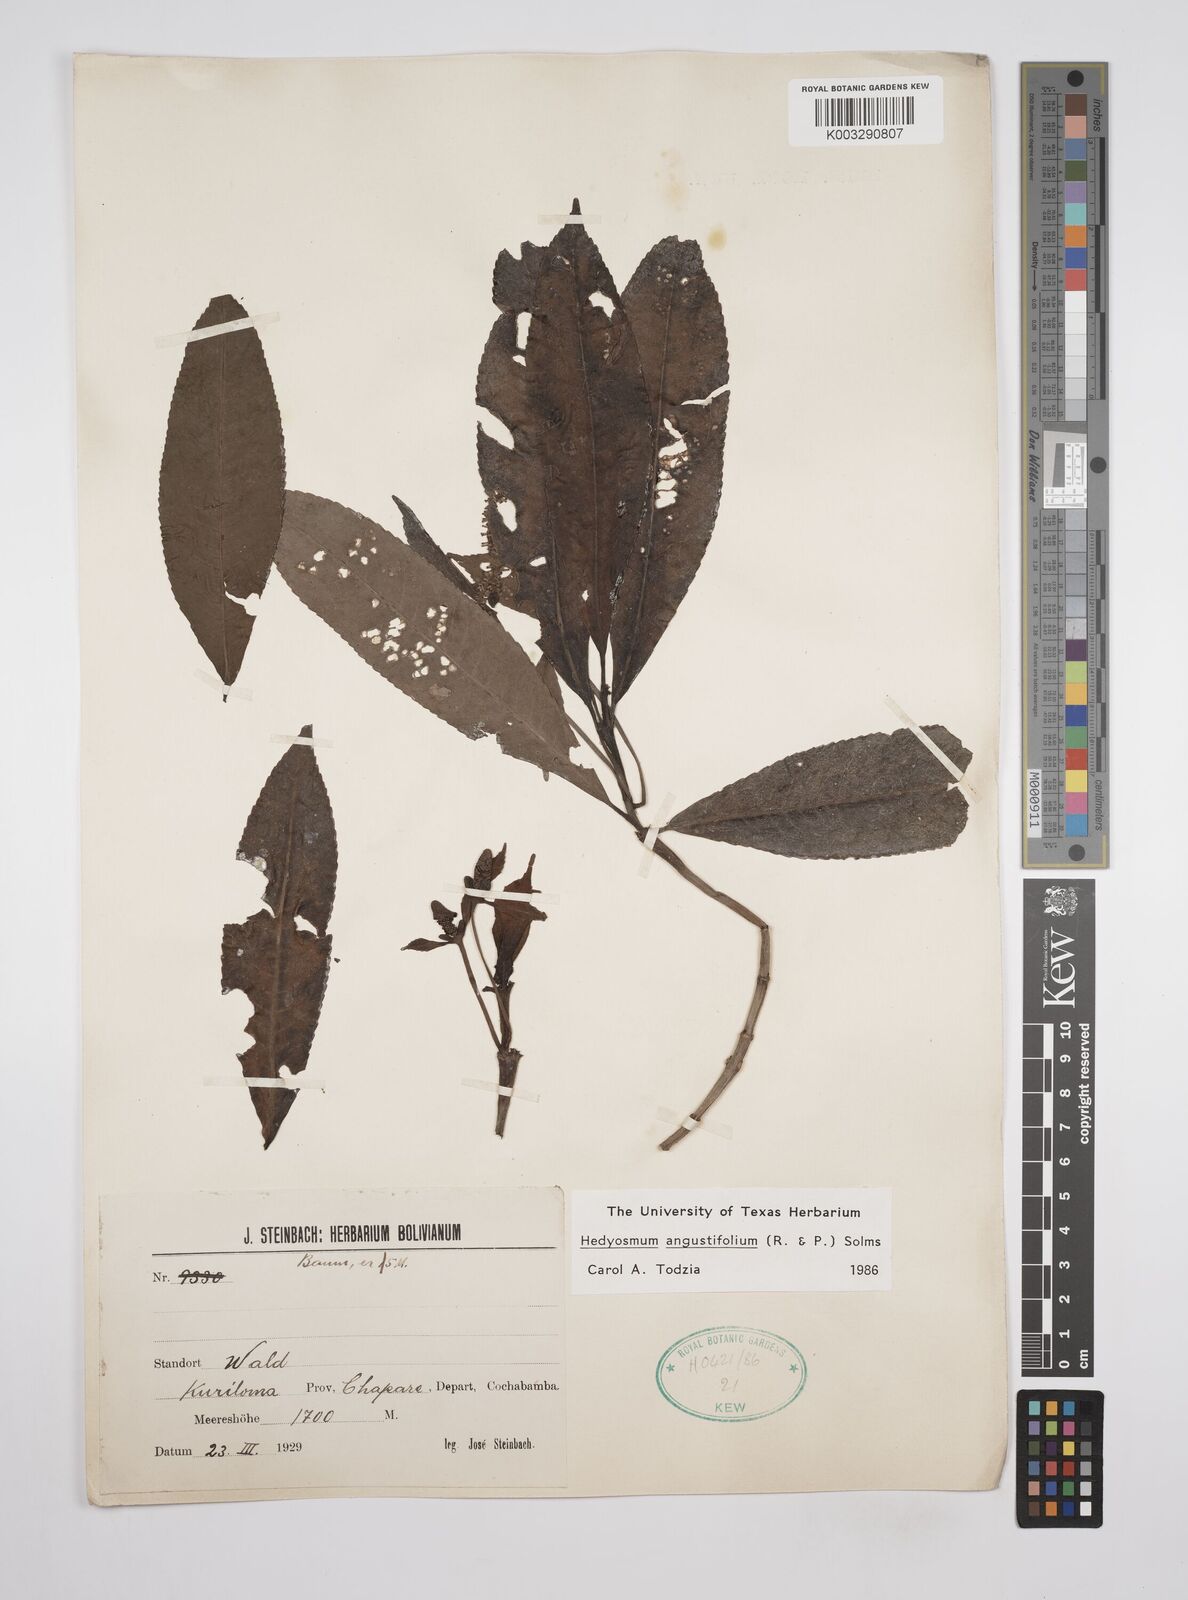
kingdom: Plantae
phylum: Tracheophyta
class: Magnoliopsida
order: Chloranthales
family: Chloranthaceae
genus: Hedyosmum
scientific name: Hedyosmum angustifolium
